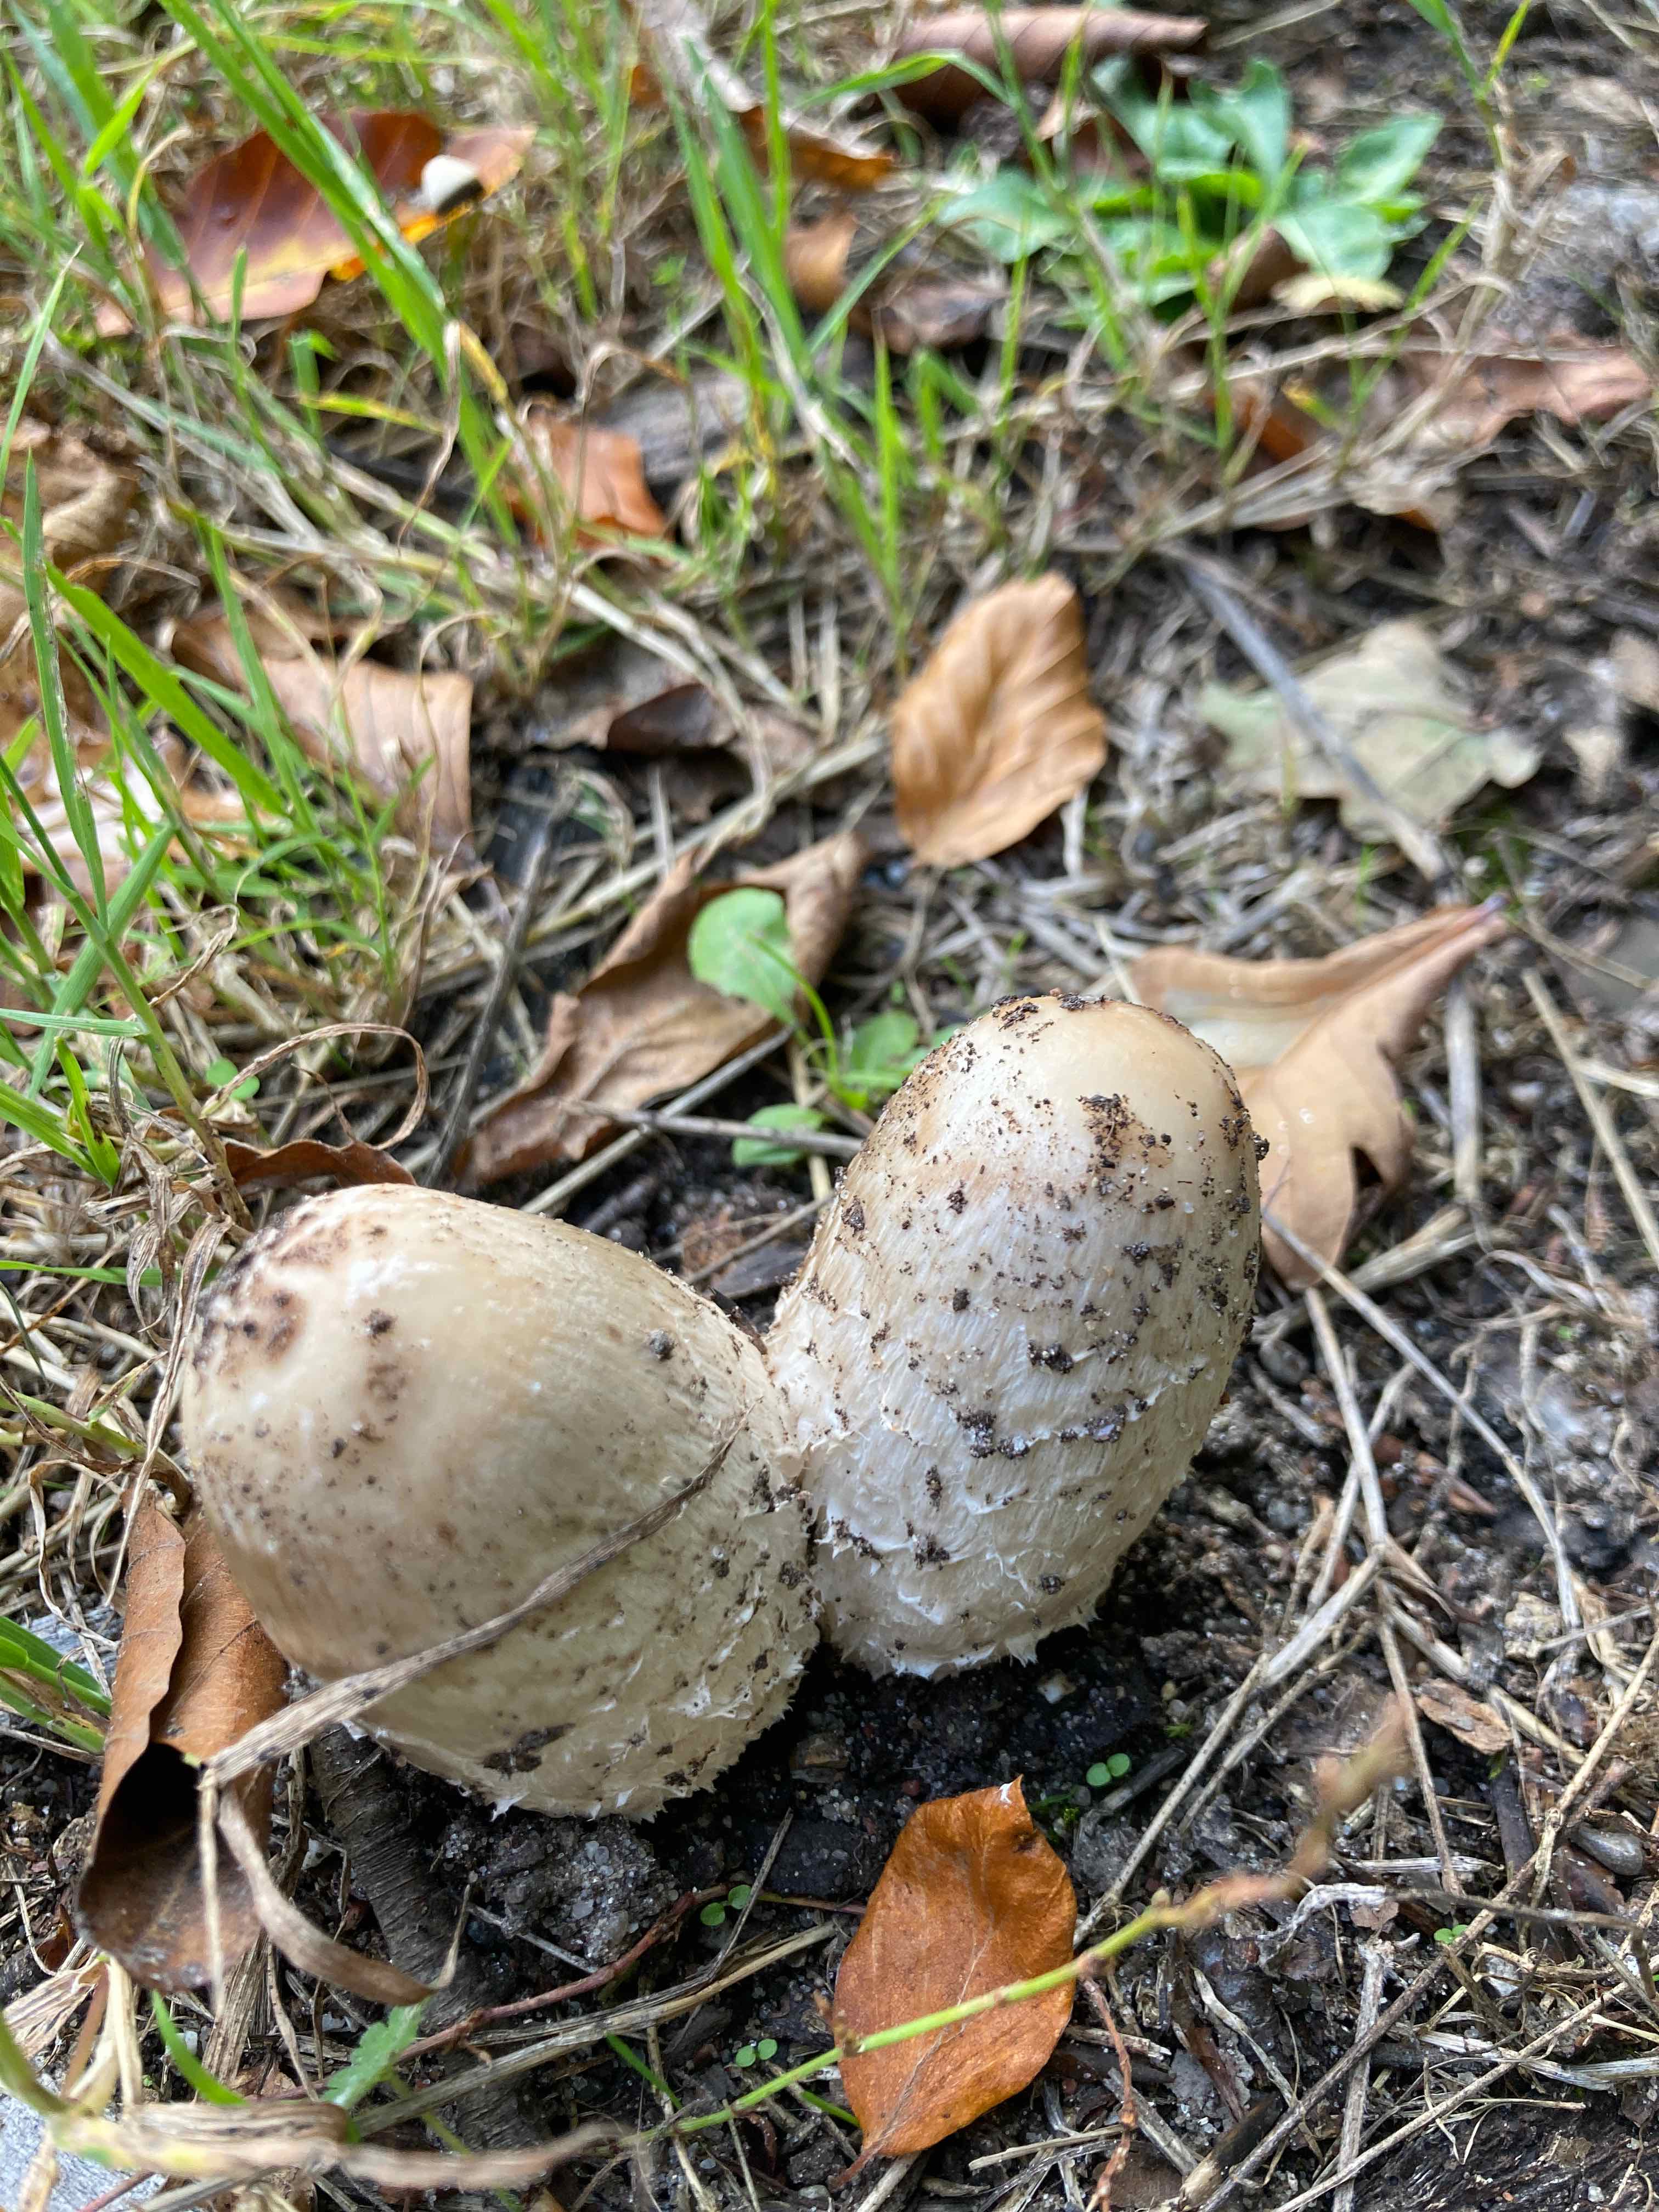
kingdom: Fungi
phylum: Basidiomycota
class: Agaricomycetes
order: Agaricales
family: Agaricaceae
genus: Coprinus
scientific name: Coprinus comatus
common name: stor parykhat
